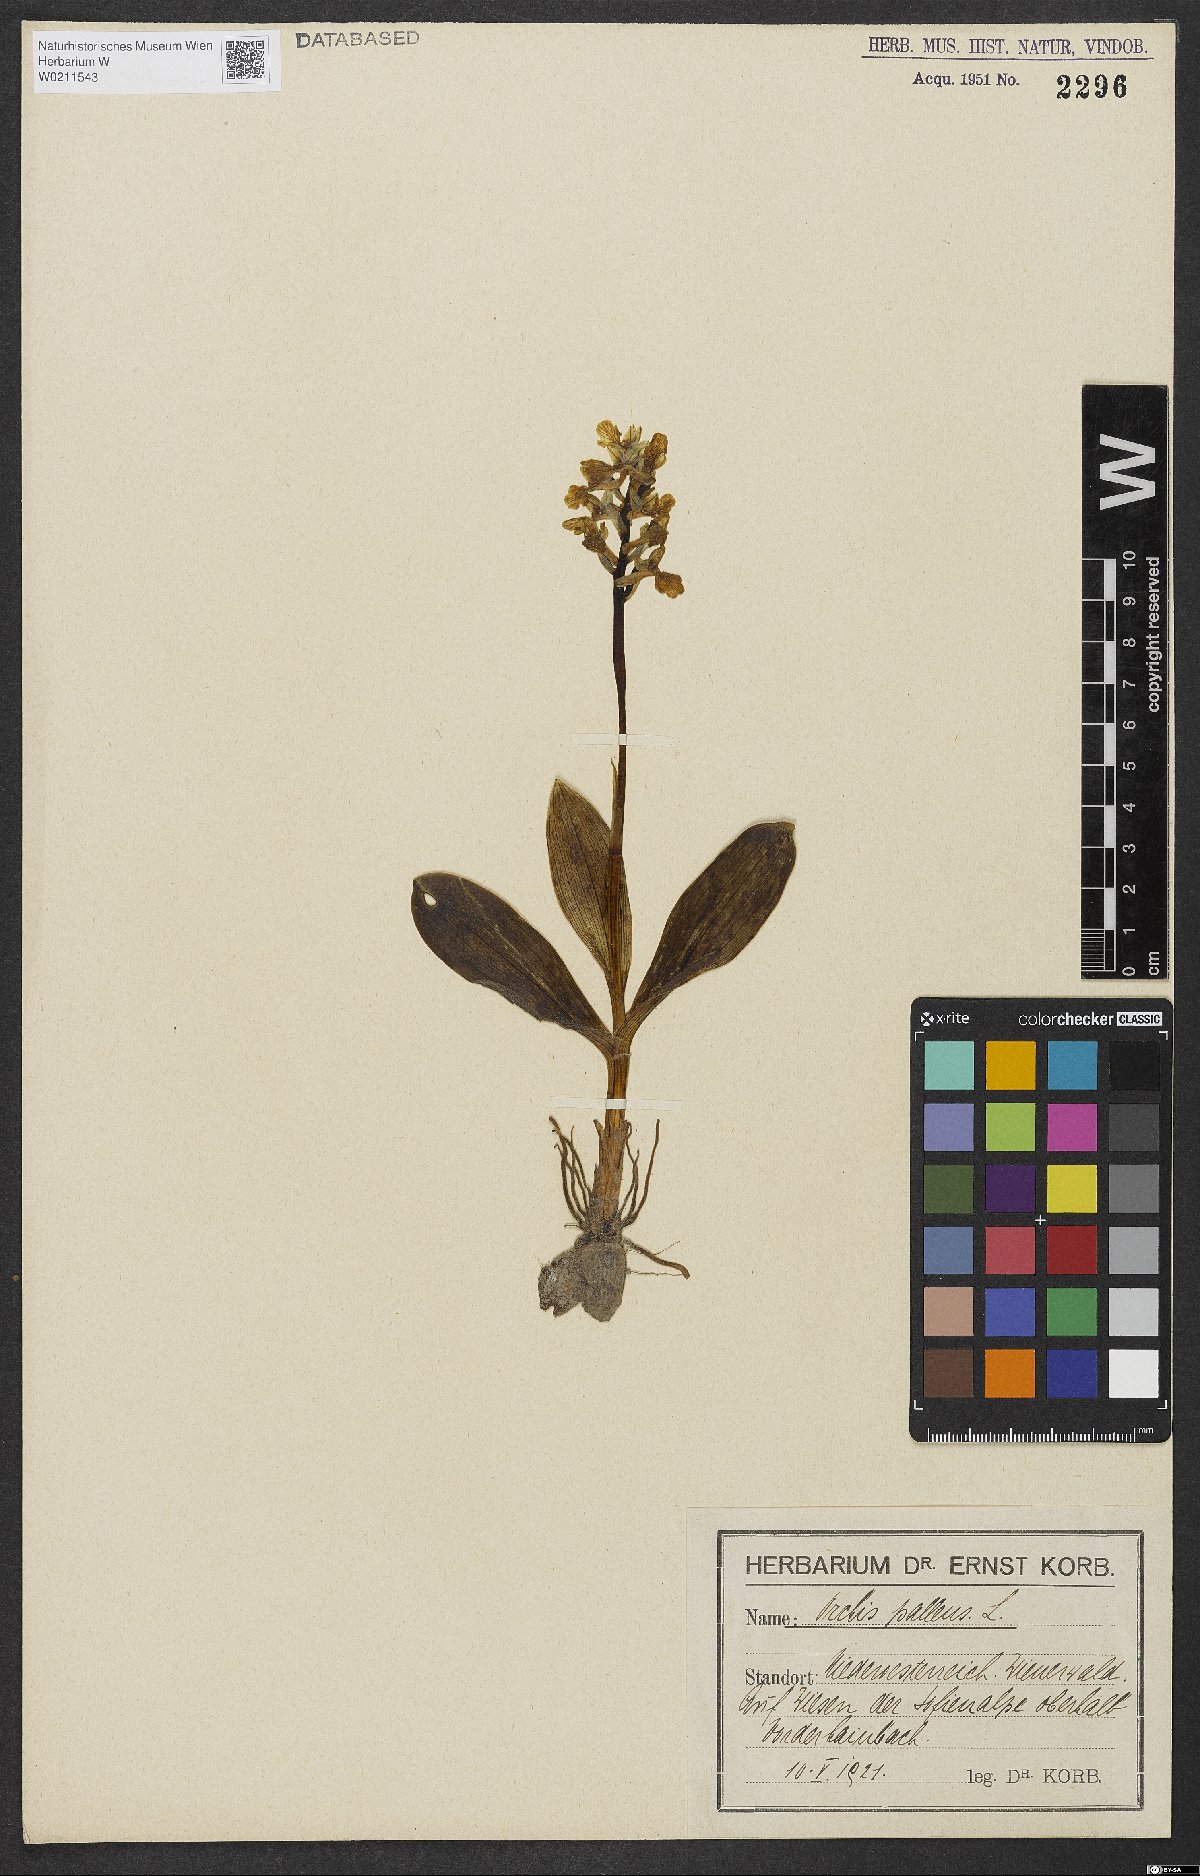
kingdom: Plantae
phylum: Tracheophyta
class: Liliopsida
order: Asparagales
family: Orchidaceae
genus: Orchis
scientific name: Orchis pallens
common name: Pale-flowered orchid
